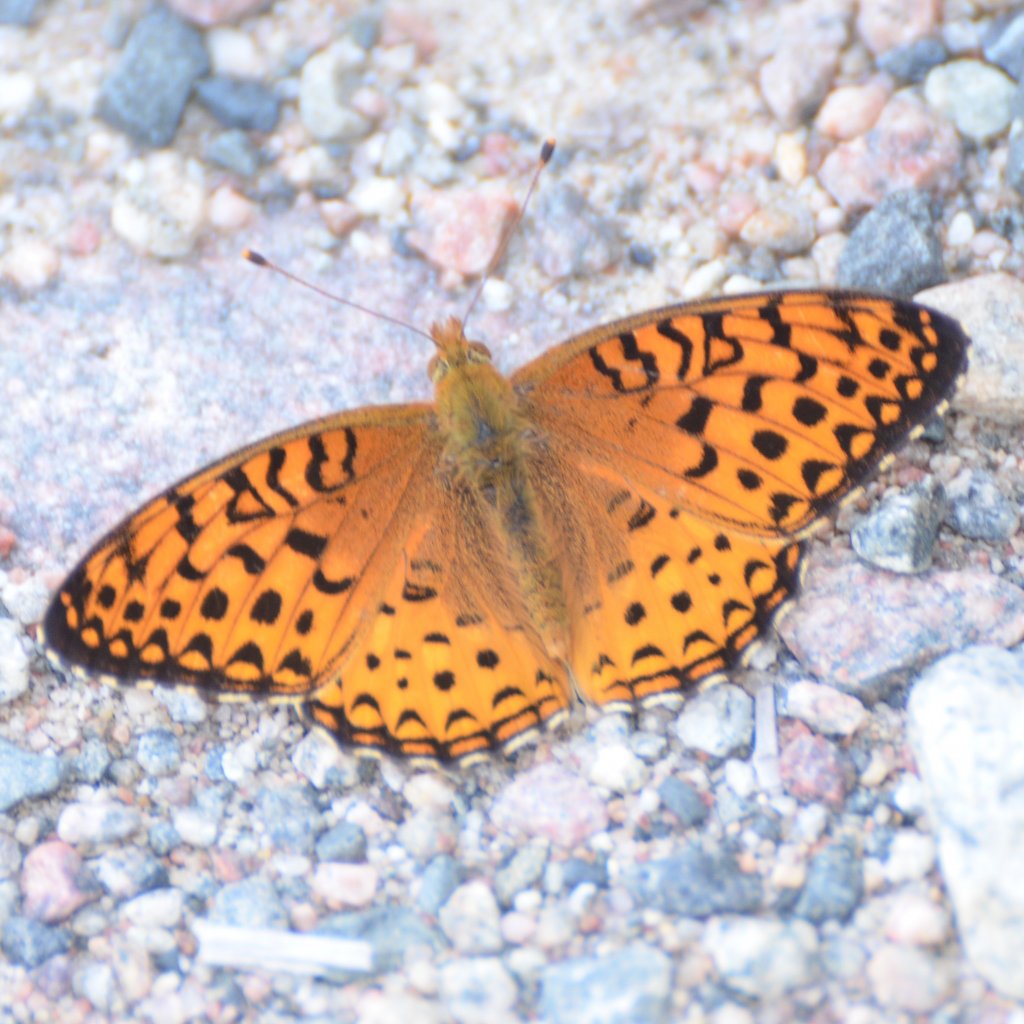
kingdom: Animalia
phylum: Arthropoda
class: Insecta
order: Lepidoptera
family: Nymphalidae
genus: Speyeria
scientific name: Speyeria aphrodite
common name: Aphrodite Fritillary
